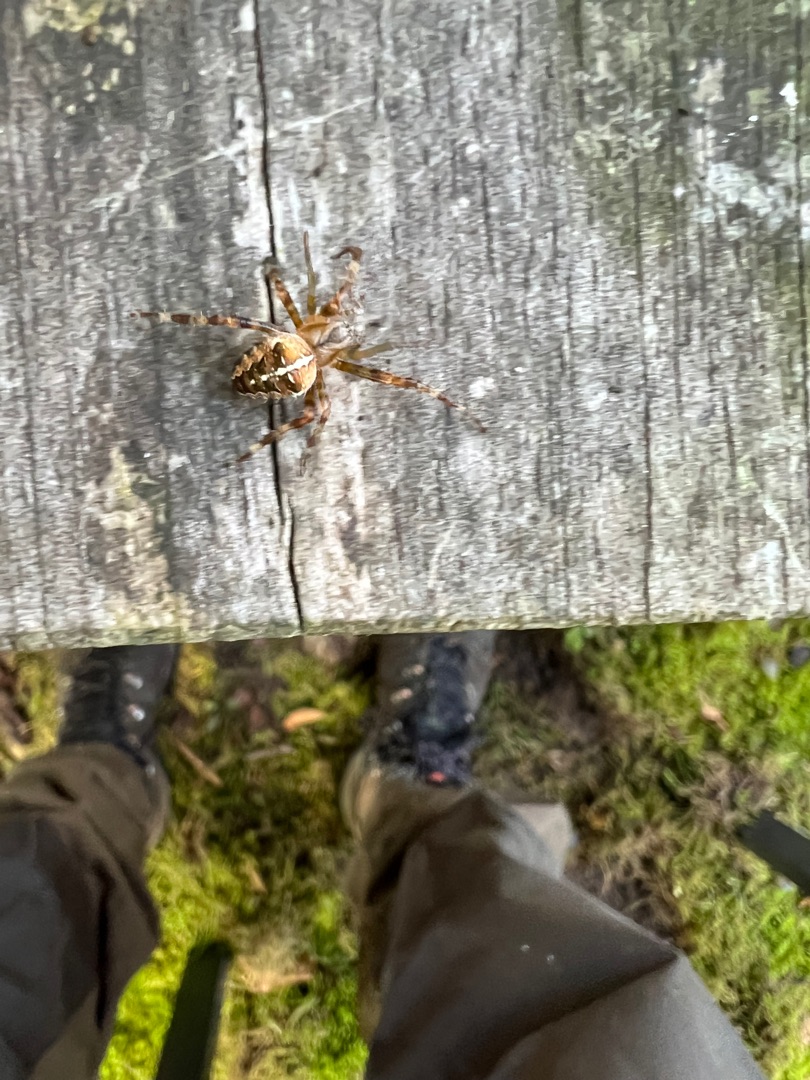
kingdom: Animalia
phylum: Arthropoda
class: Arachnida
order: Araneae
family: Araneidae
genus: Araneus
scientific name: Araneus diadematus
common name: Korsedderkop
